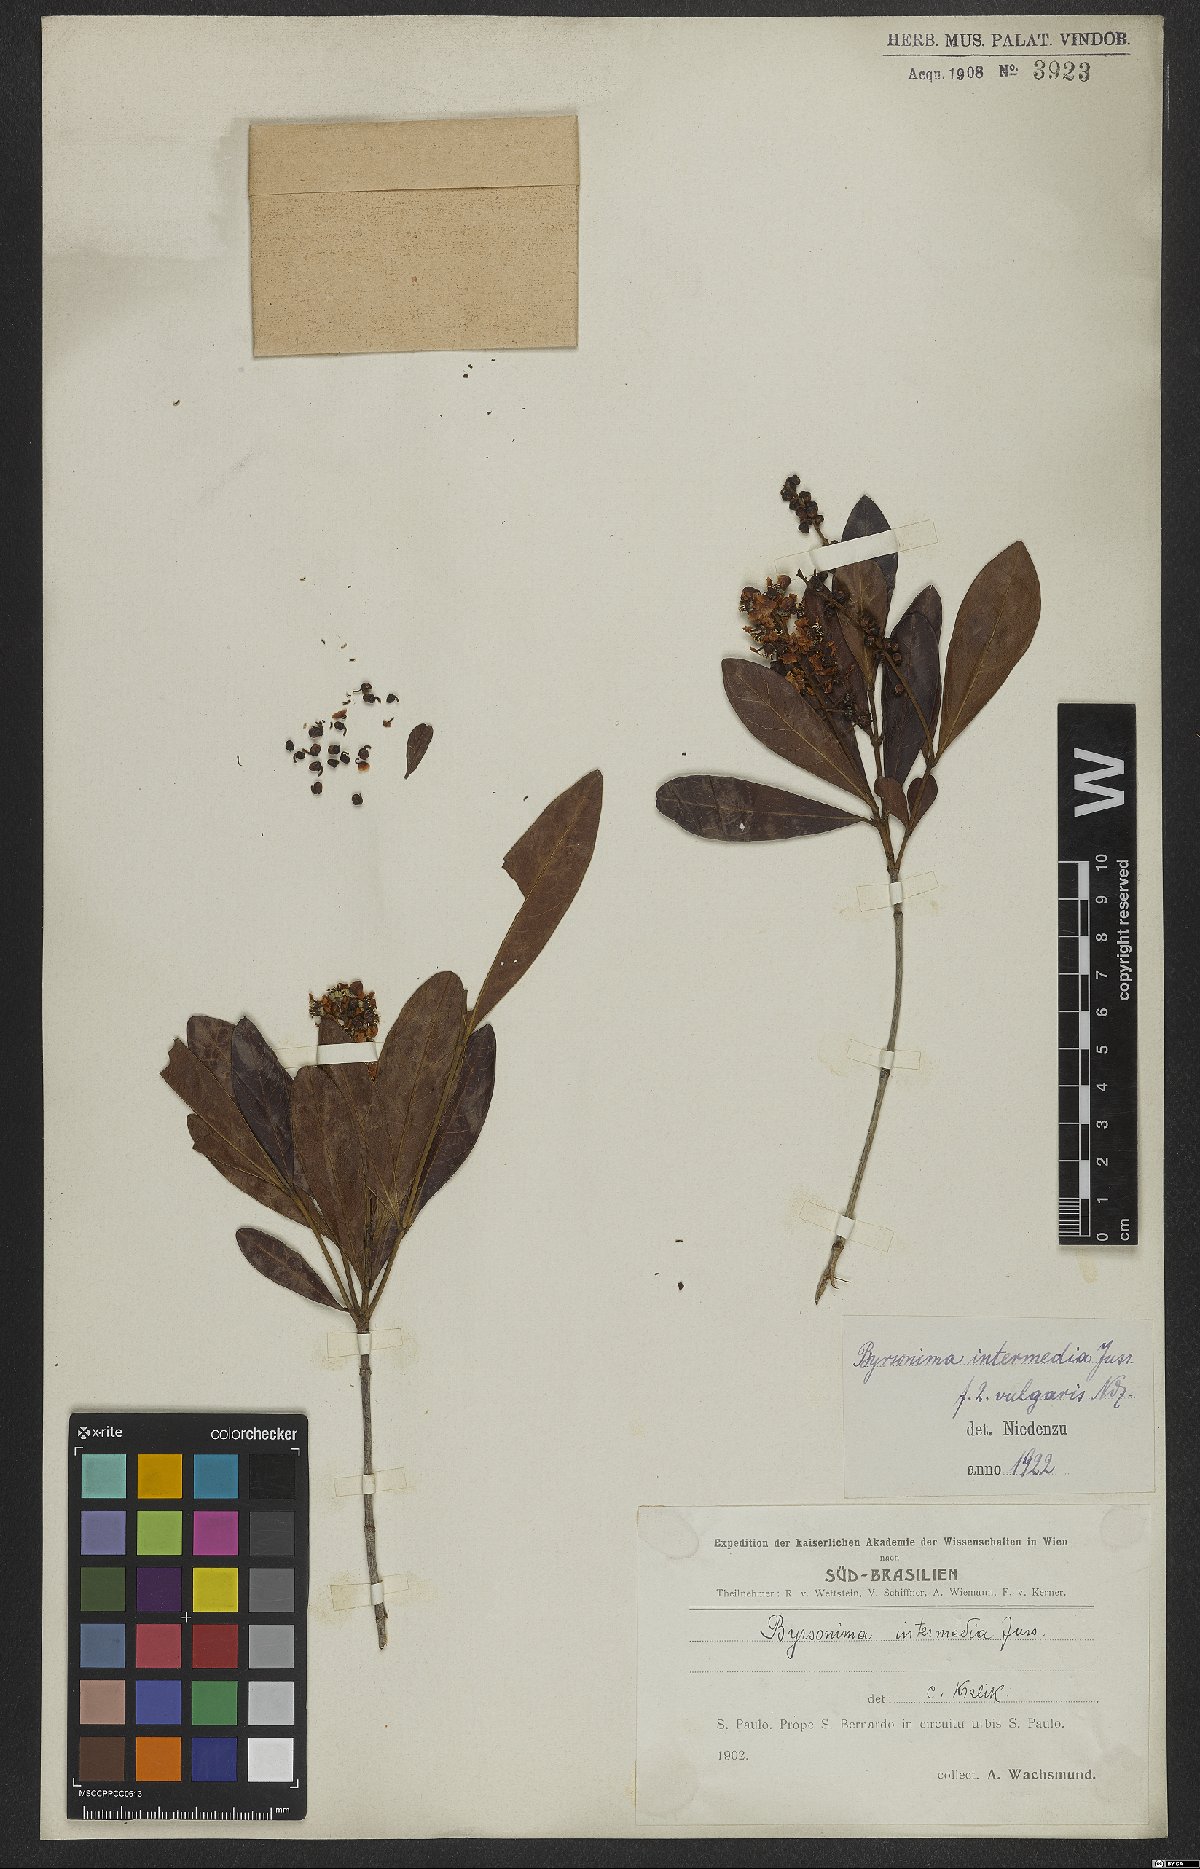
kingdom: Plantae
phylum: Tracheophyta
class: Magnoliopsida
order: Malpighiales
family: Malpighiaceae
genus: Byrsonima
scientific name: Byrsonima intermedia
